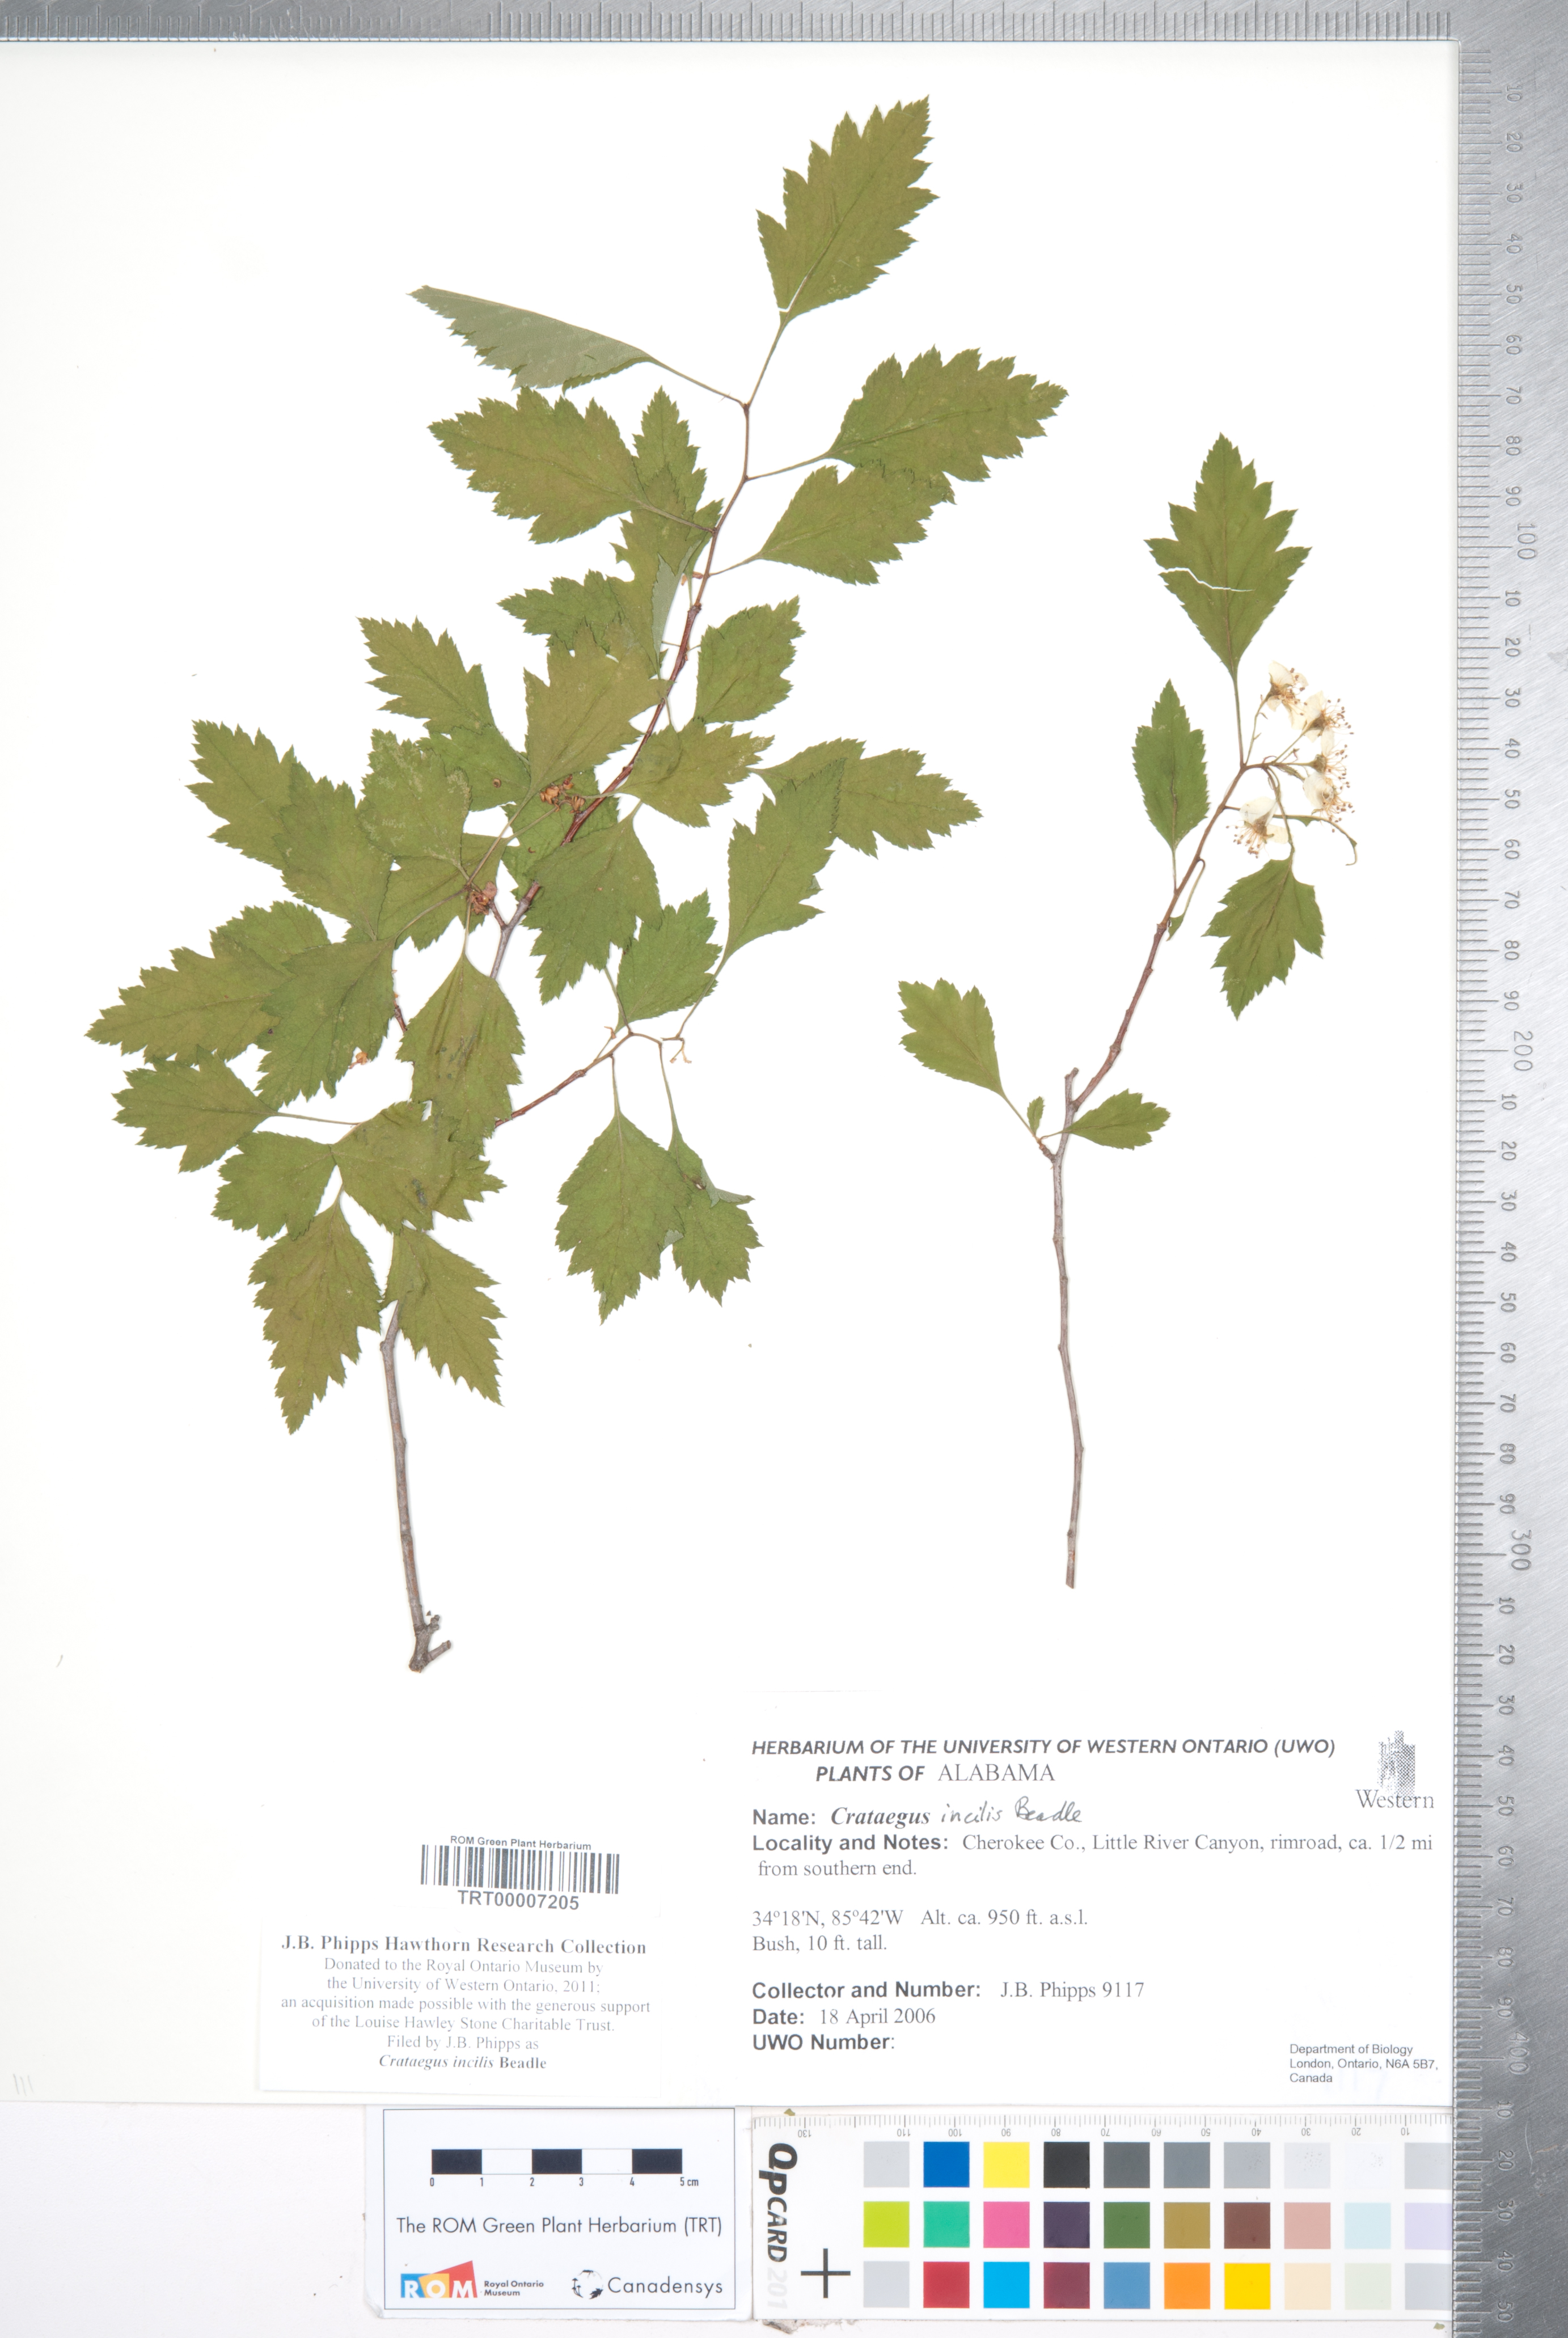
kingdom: Plantae
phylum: Tracheophyta
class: Magnoliopsida
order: Rosales
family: Rosaceae
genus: Crataegus
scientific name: Crataegus pulcherrima
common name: Beautiful hawthorn
